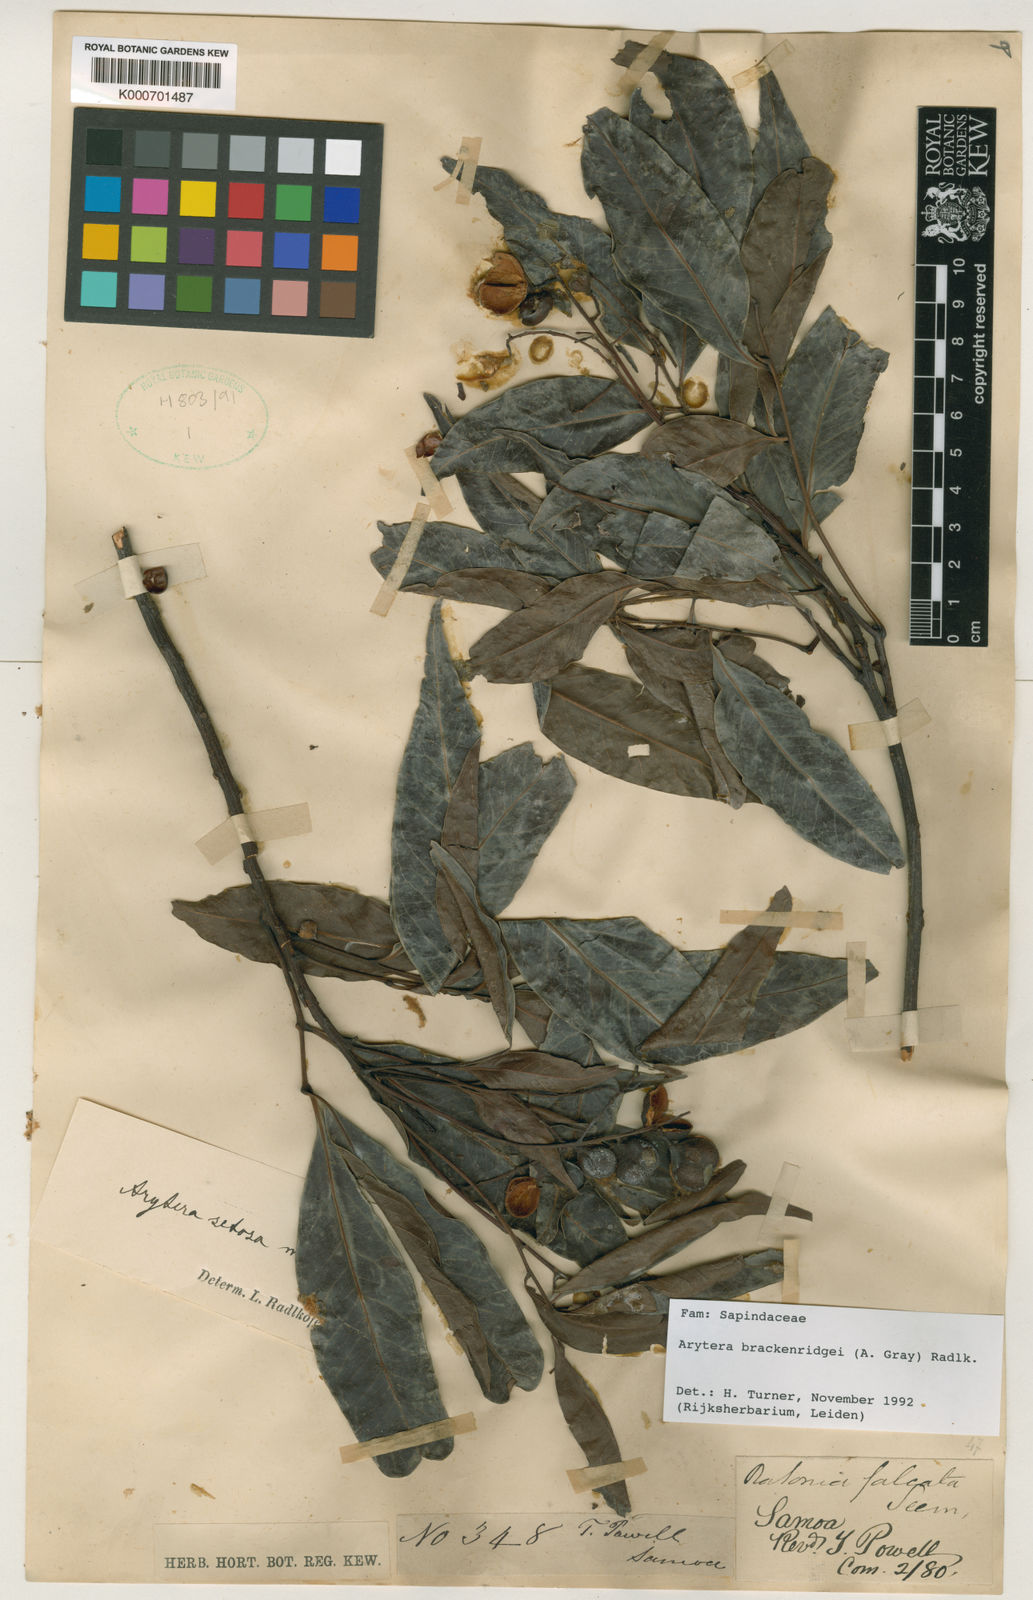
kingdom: Plantae
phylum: Tracheophyta
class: Magnoliopsida
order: Sapindales
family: Sapindaceae
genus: Lepidocupania
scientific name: Lepidocupania brackenridgei
